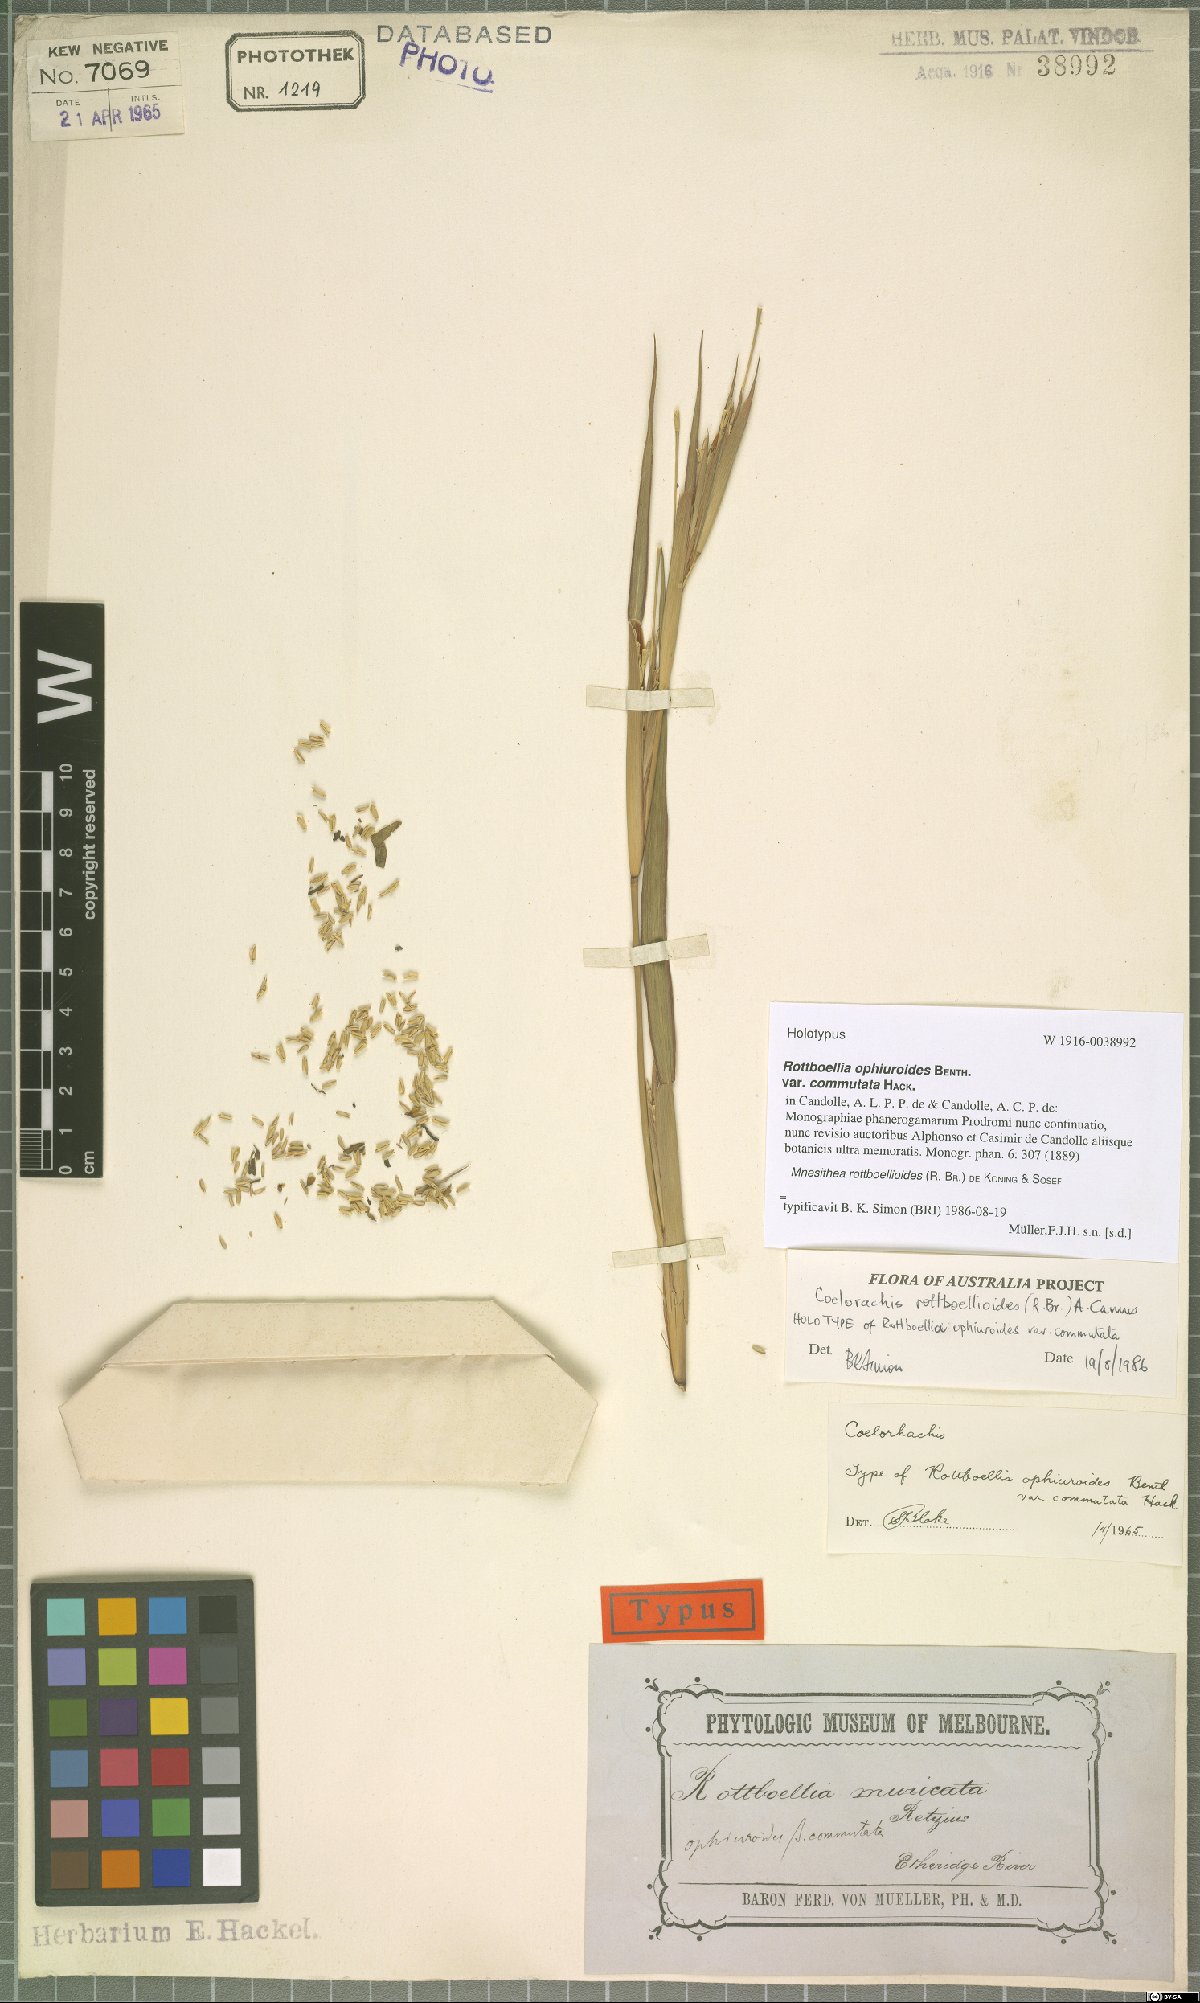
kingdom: Plantae
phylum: Tracheophyta
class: Liliopsida
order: Poales
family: Poaceae
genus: Rottboellia
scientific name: Rottboellia rottboellioides
